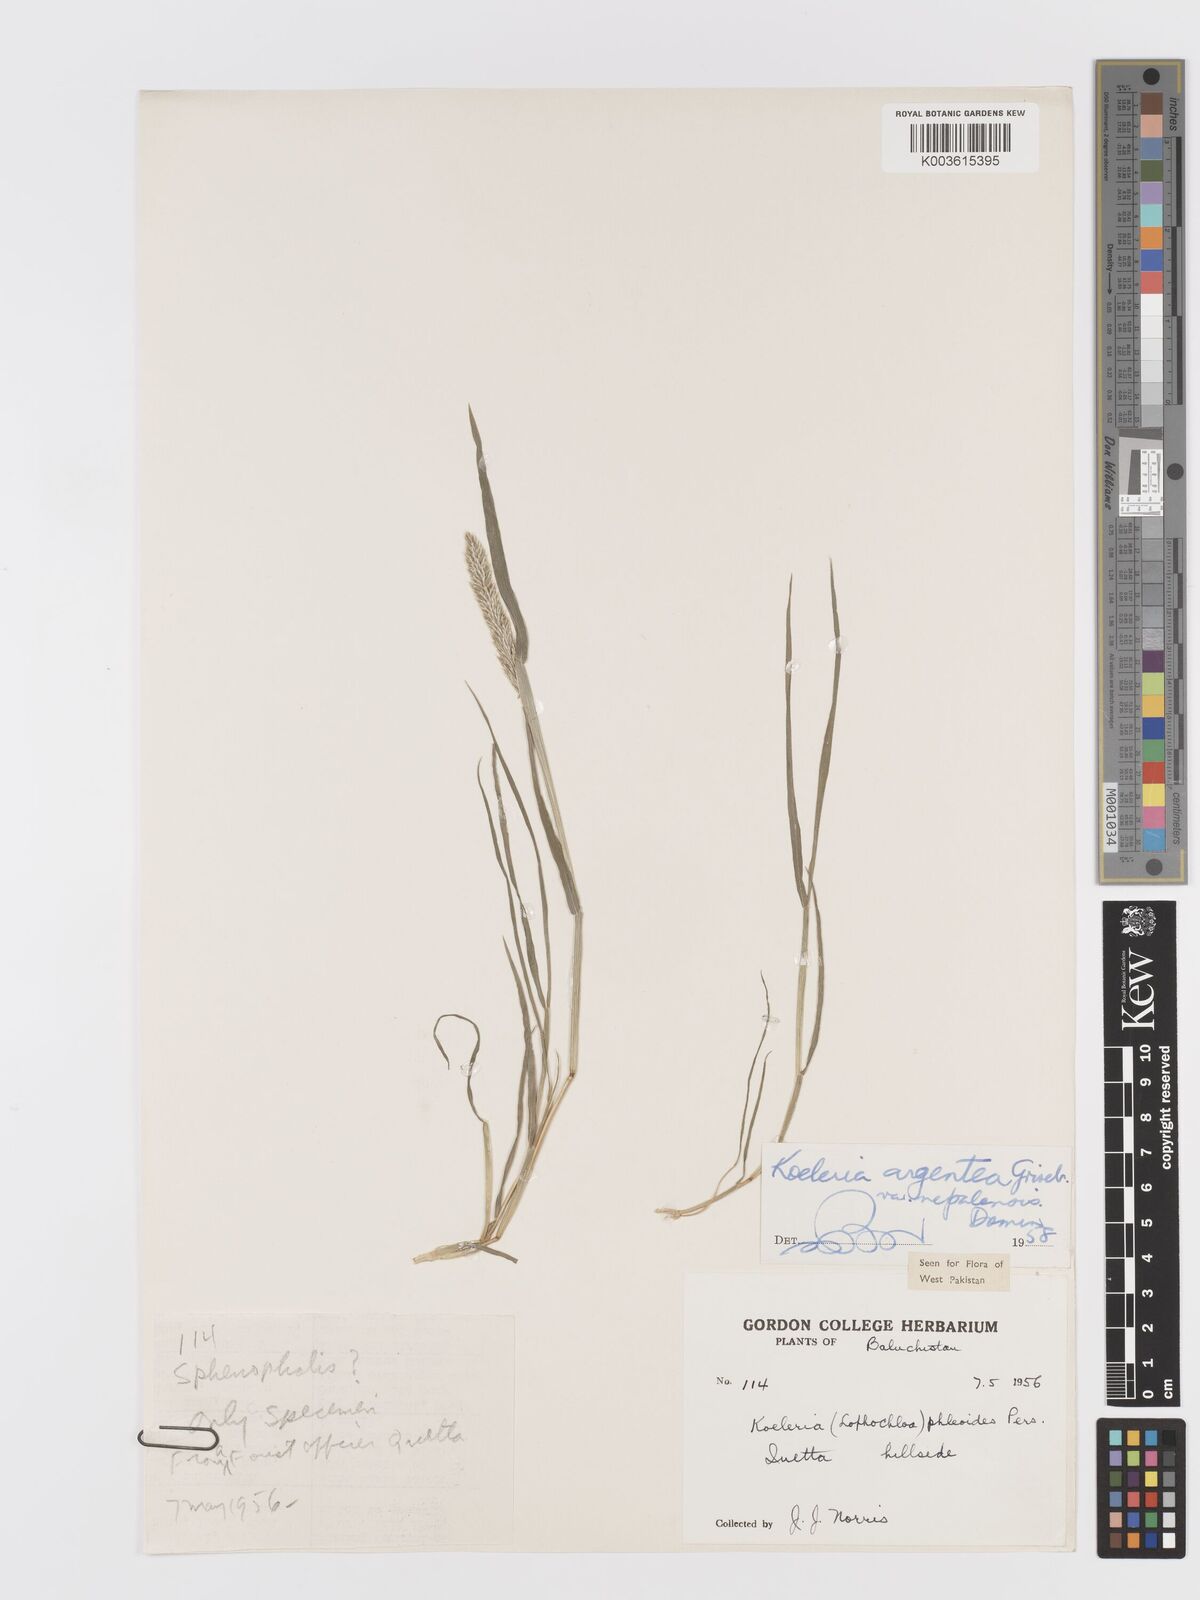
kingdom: Plantae
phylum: Tracheophyta
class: Liliopsida
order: Poales
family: Poaceae
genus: Trisetum
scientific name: Trisetum
